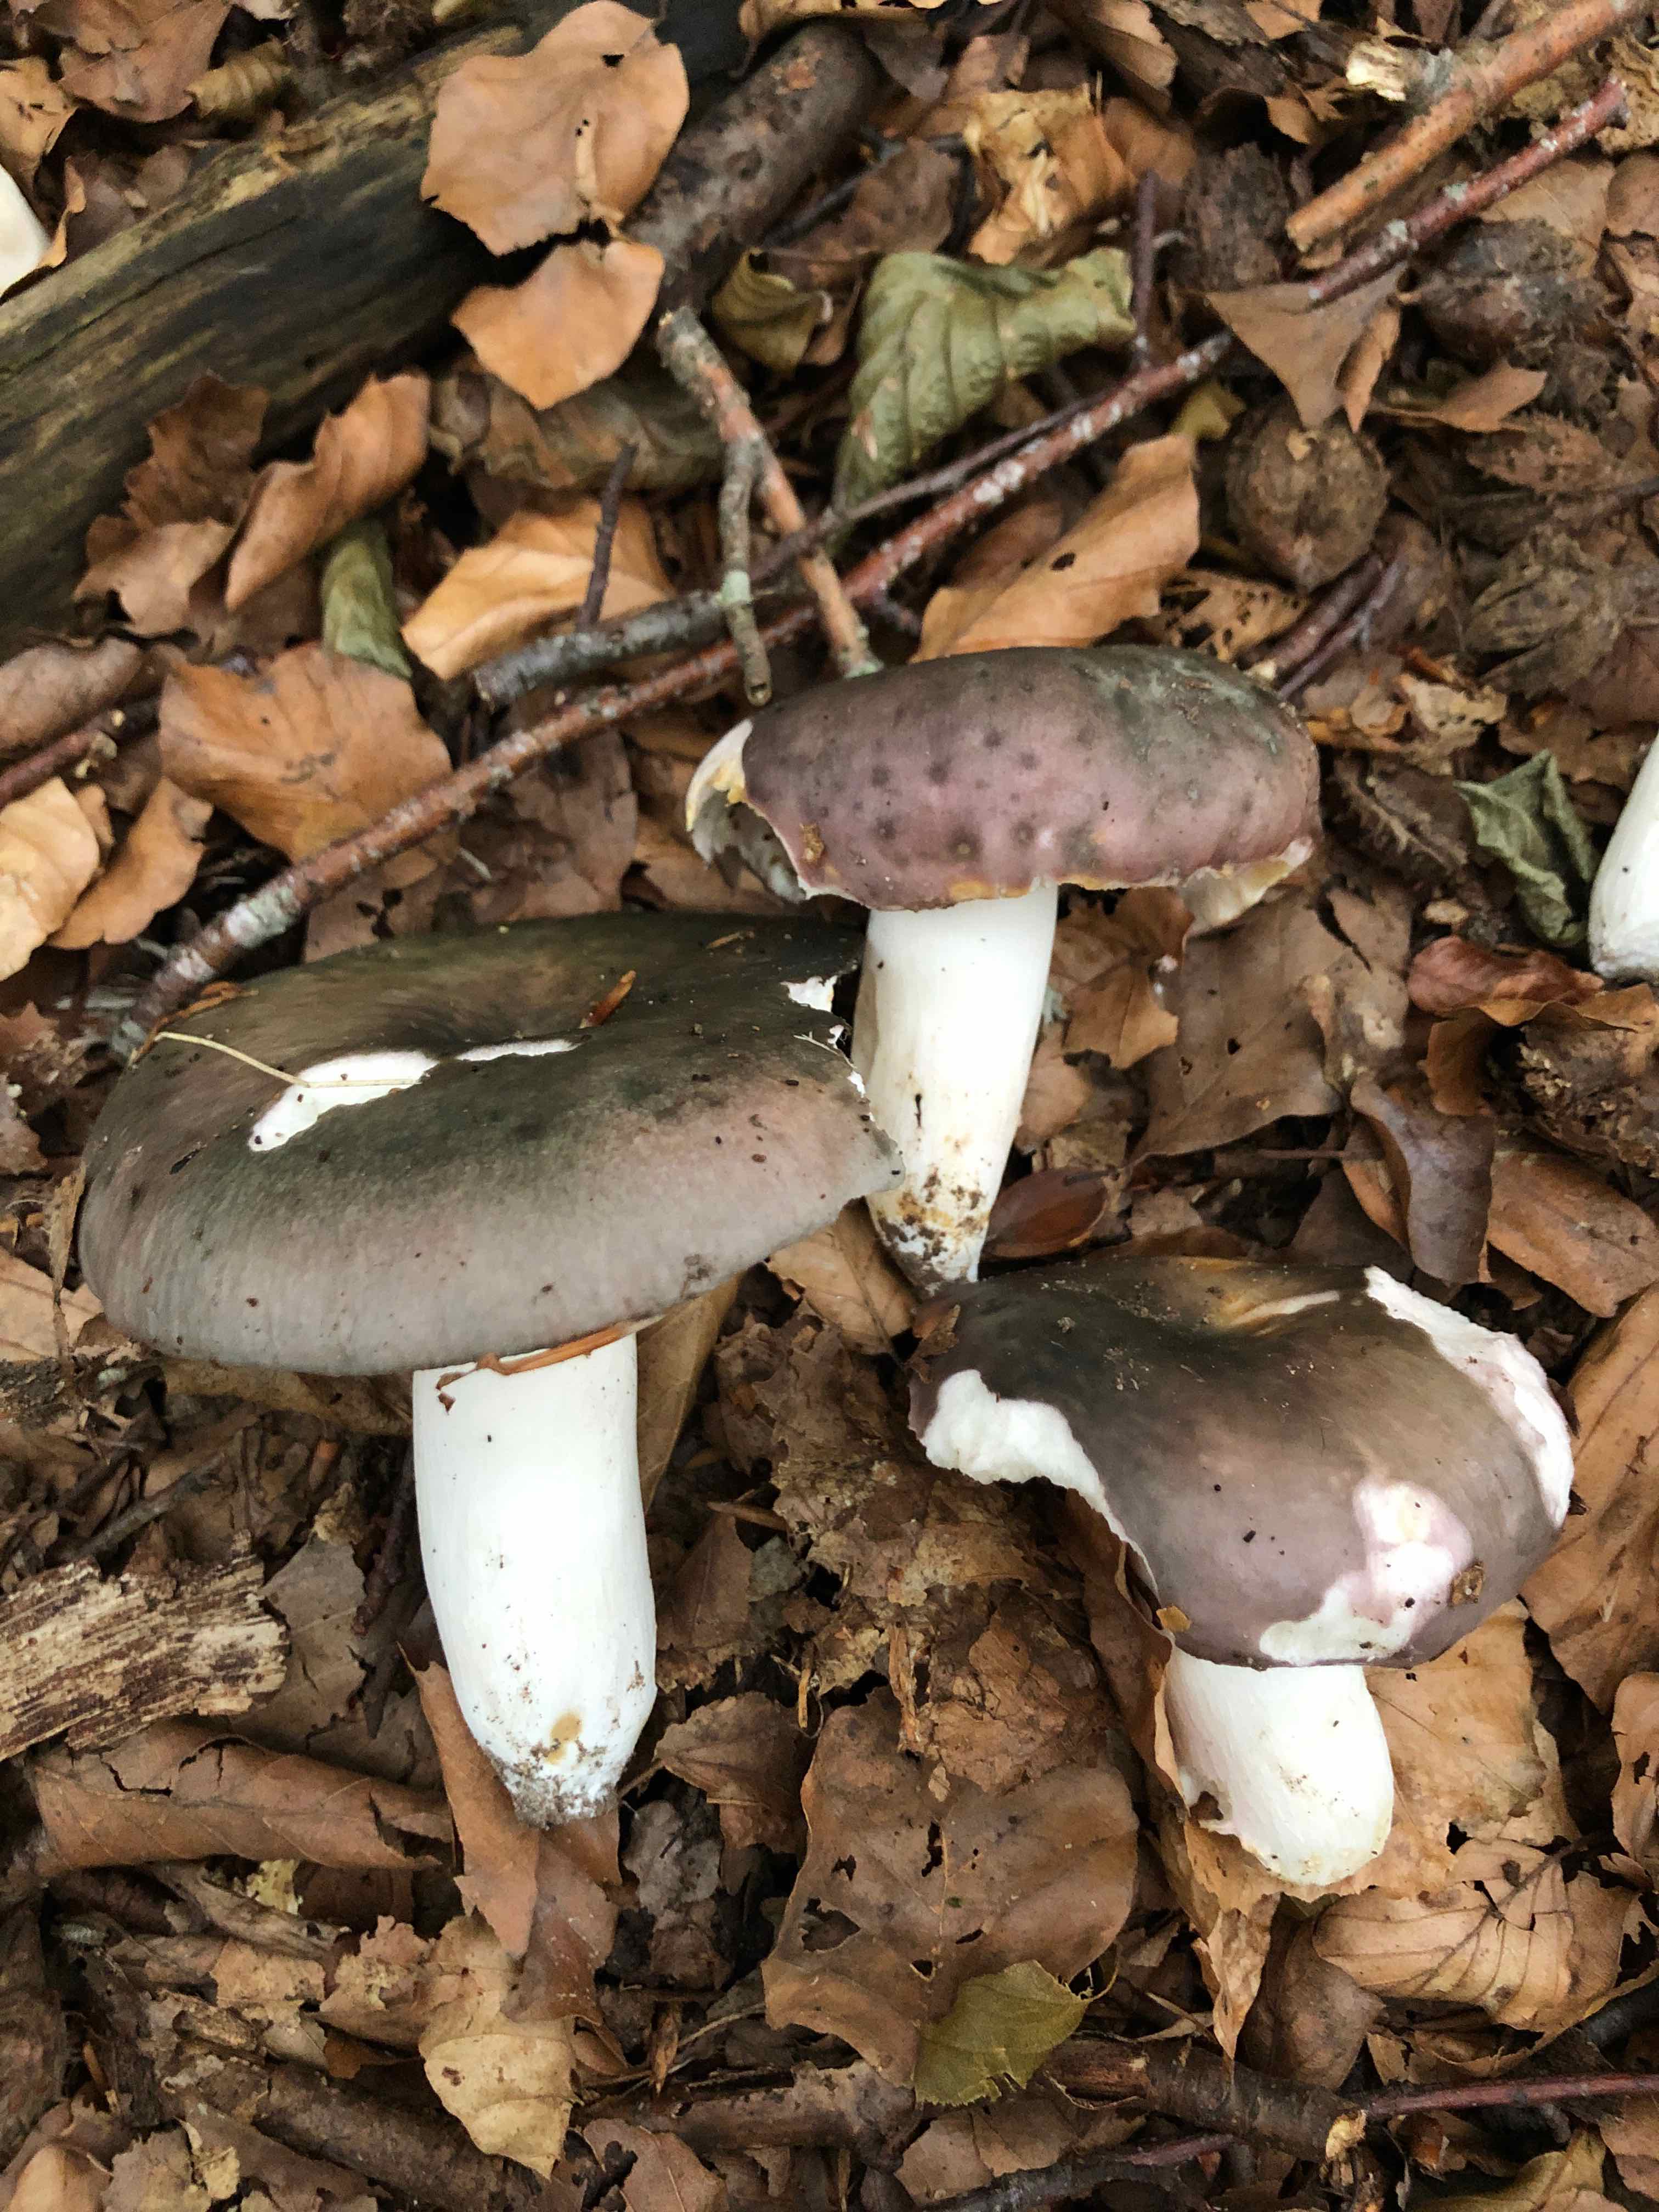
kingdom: Fungi
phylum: Basidiomycota
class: Agaricomycetes
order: Russulales
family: Russulaceae
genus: Russula
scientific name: Russula cyanoxantha
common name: broget skørhat
